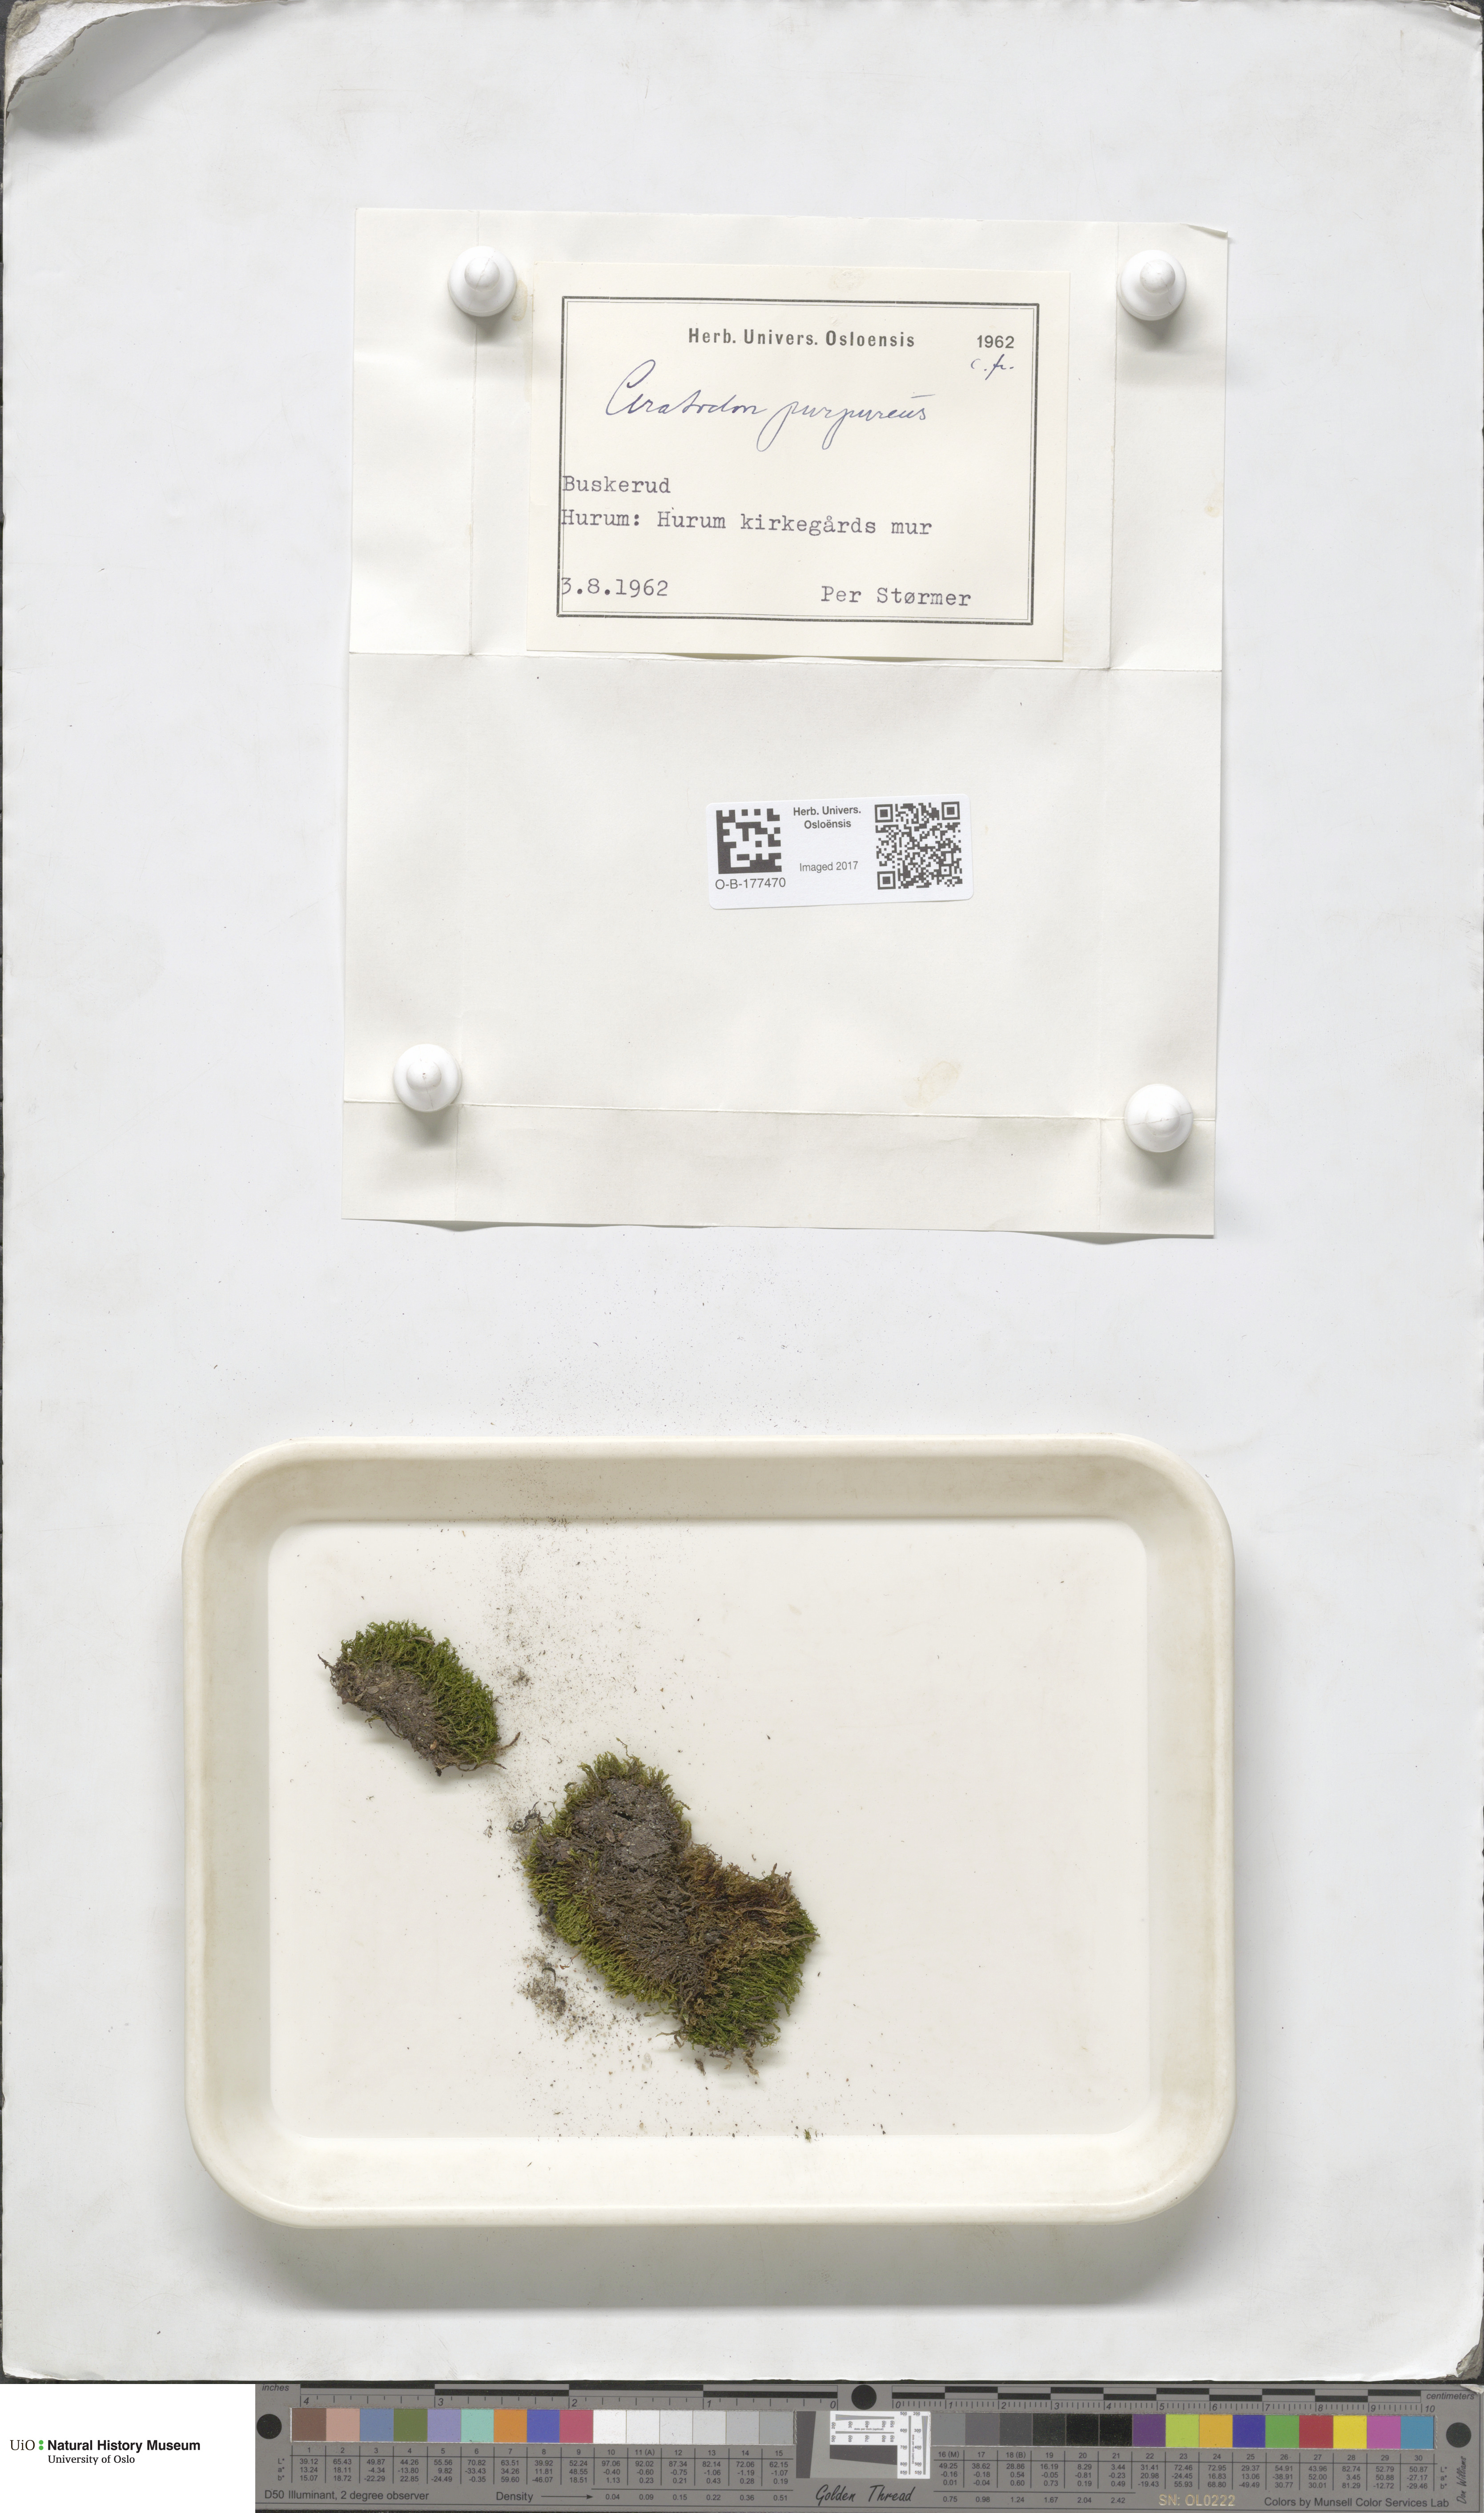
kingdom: Plantae
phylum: Bryophyta
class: Bryopsida
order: Dicranales
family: Ditrichaceae
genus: Ceratodon
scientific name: Ceratodon purpureus
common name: Redshank
